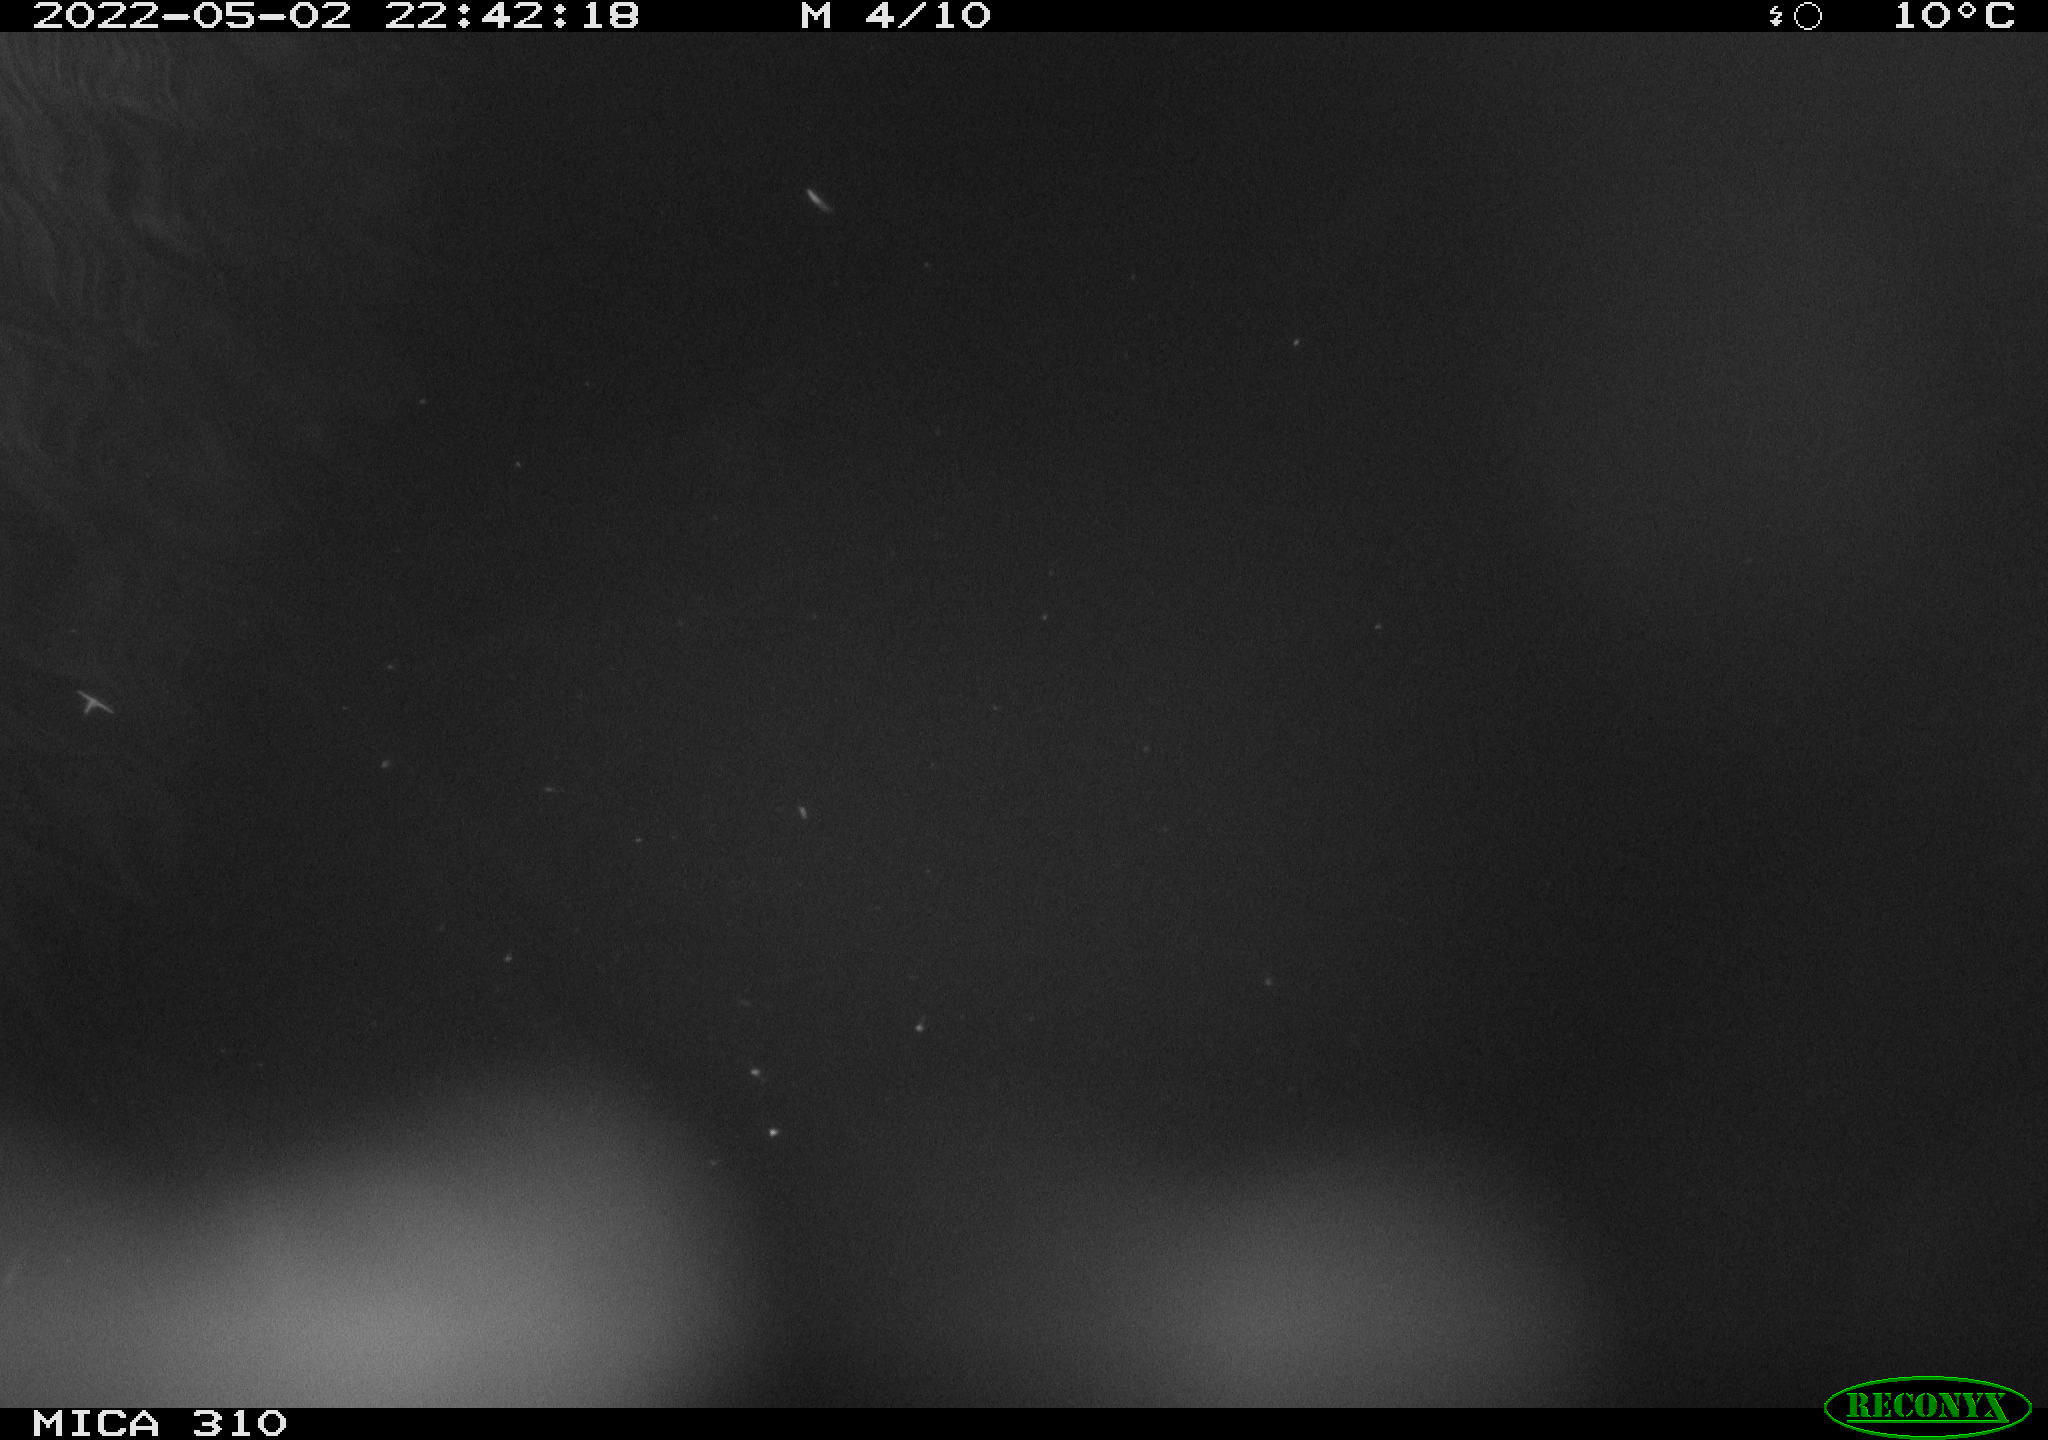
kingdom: Animalia
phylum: Chordata
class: Aves
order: Anseriformes
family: Anatidae
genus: Anas
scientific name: Anas platyrhynchos
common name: Mallard
